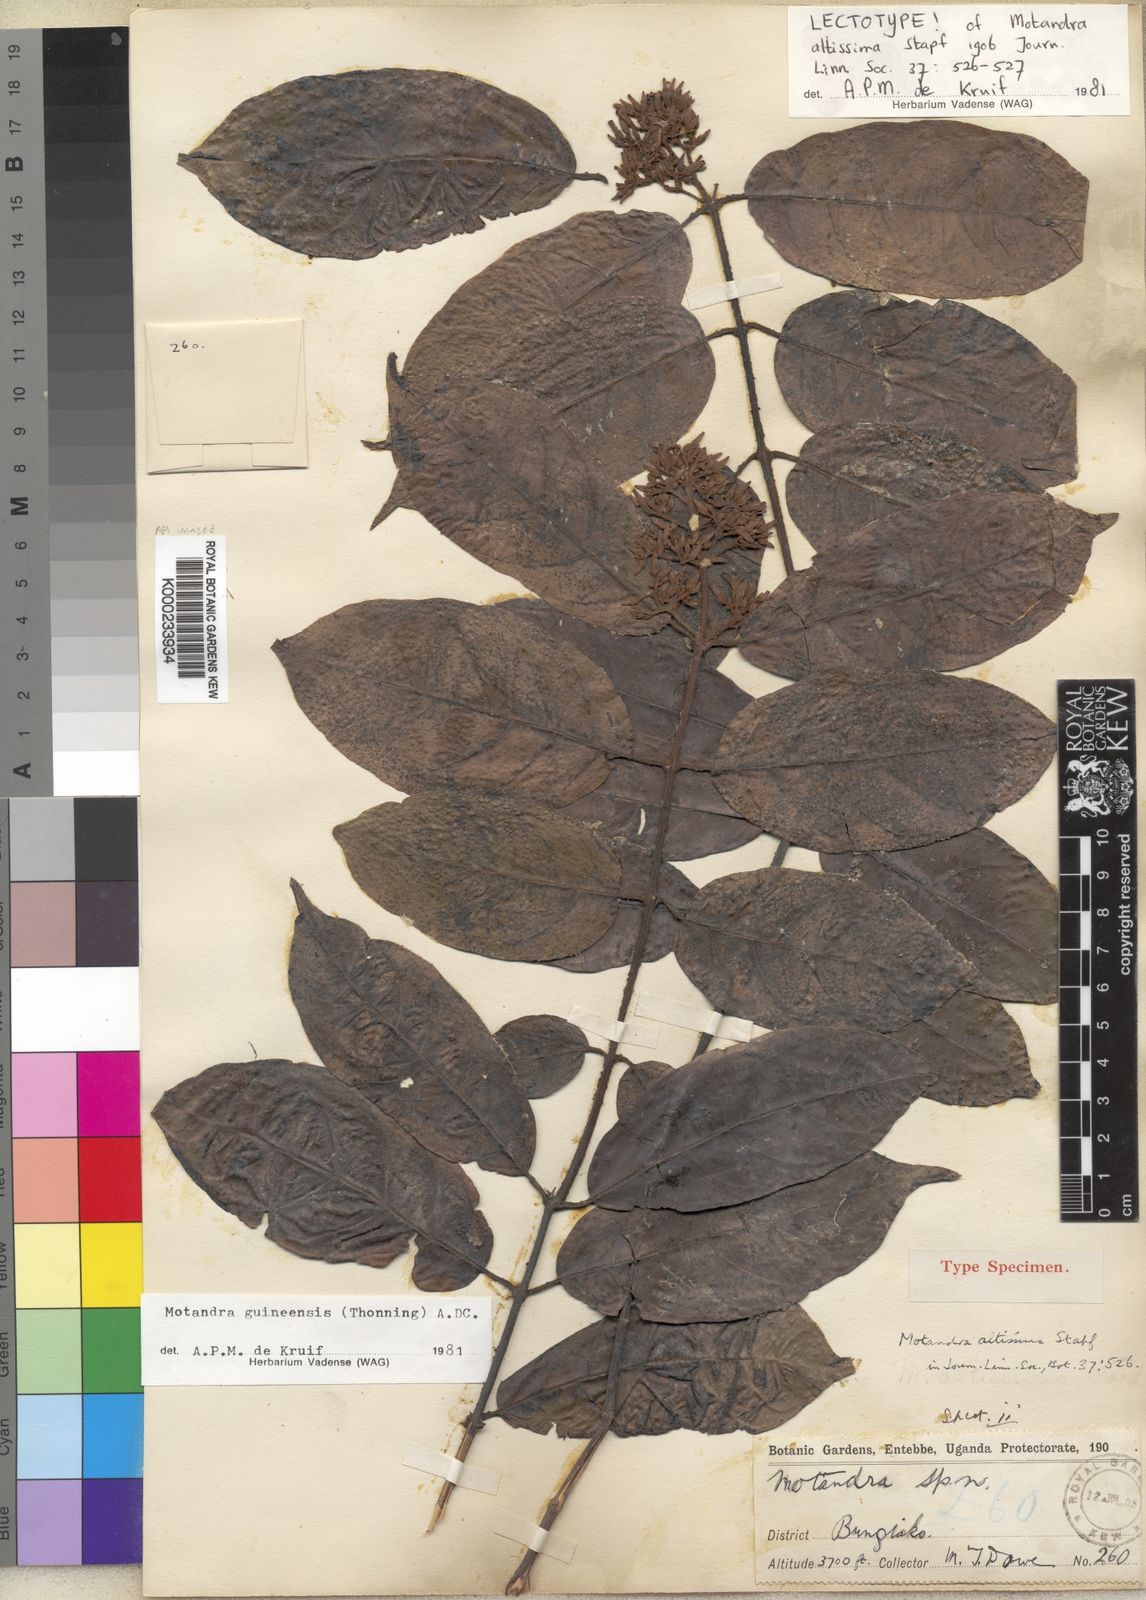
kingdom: Plantae
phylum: Tracheophyta
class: Magnoliopsida
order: Gentianales
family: Apocynaceae
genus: Motandra
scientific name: Motandra paniculata
